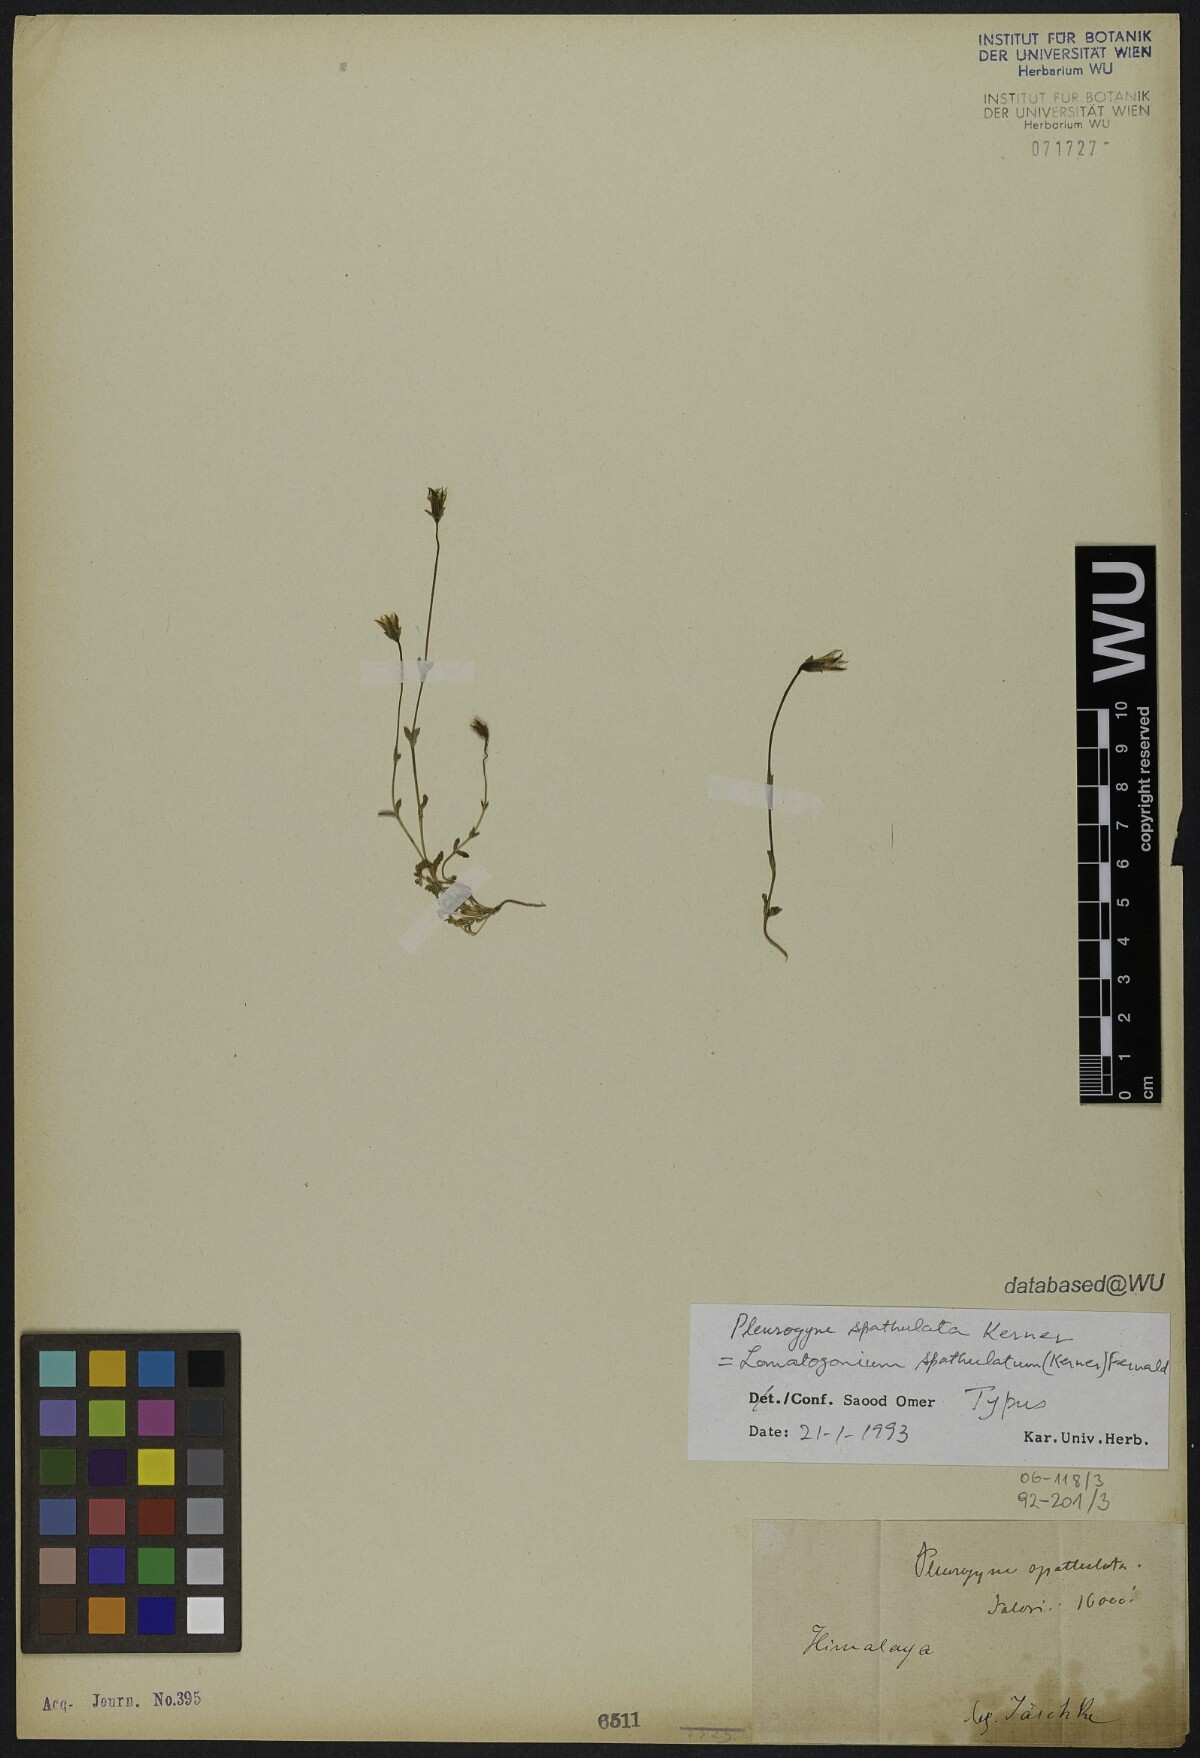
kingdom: Plantae
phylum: Tracheophyta
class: Magnoliopsida
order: Gentianales
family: Gentianaceae
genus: Lomatogonium
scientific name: Lomatogonium caeruleum
